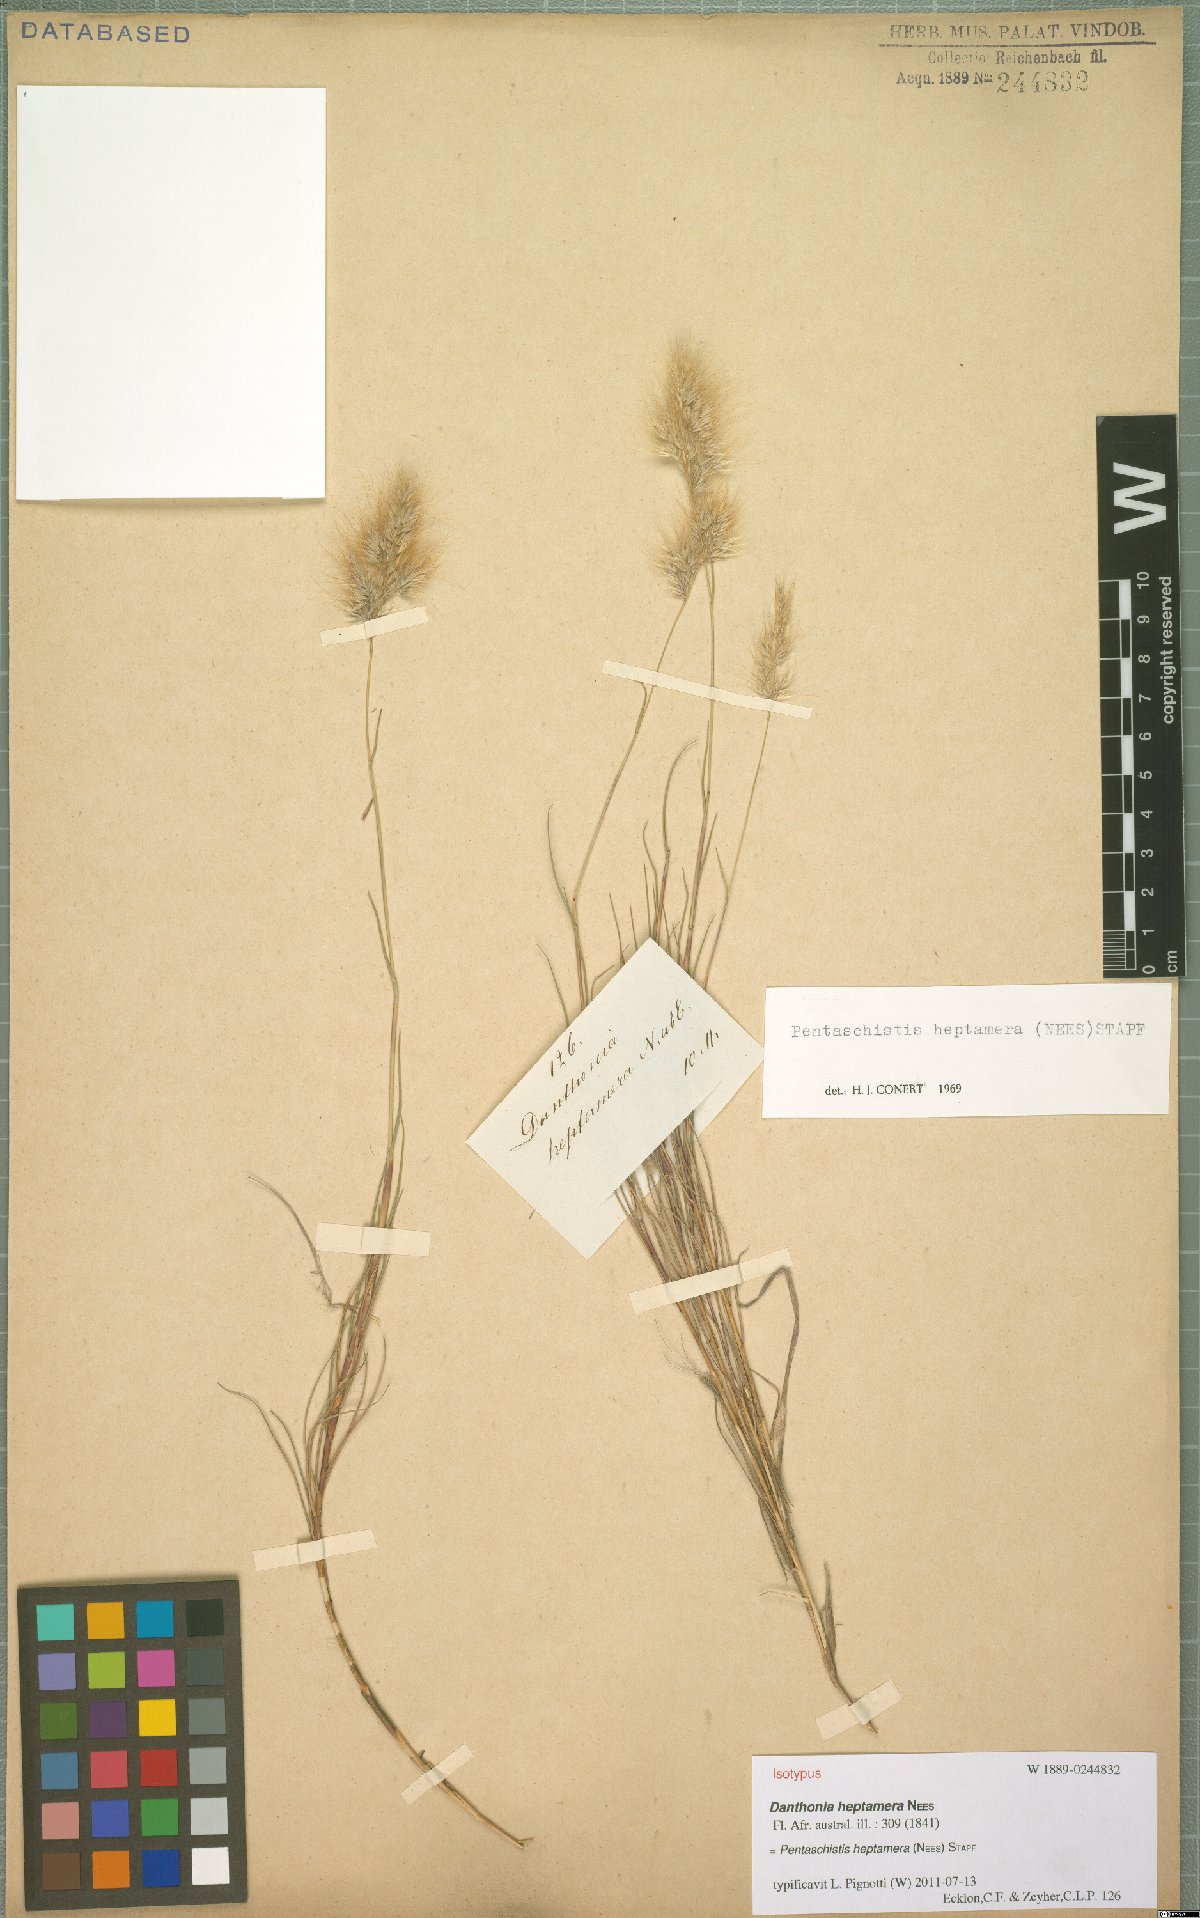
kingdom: Plantae
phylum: Tracheophyta
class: Liliopsida
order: Poales
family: Poaceae
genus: Pentameris
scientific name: Pentameris heptamera
